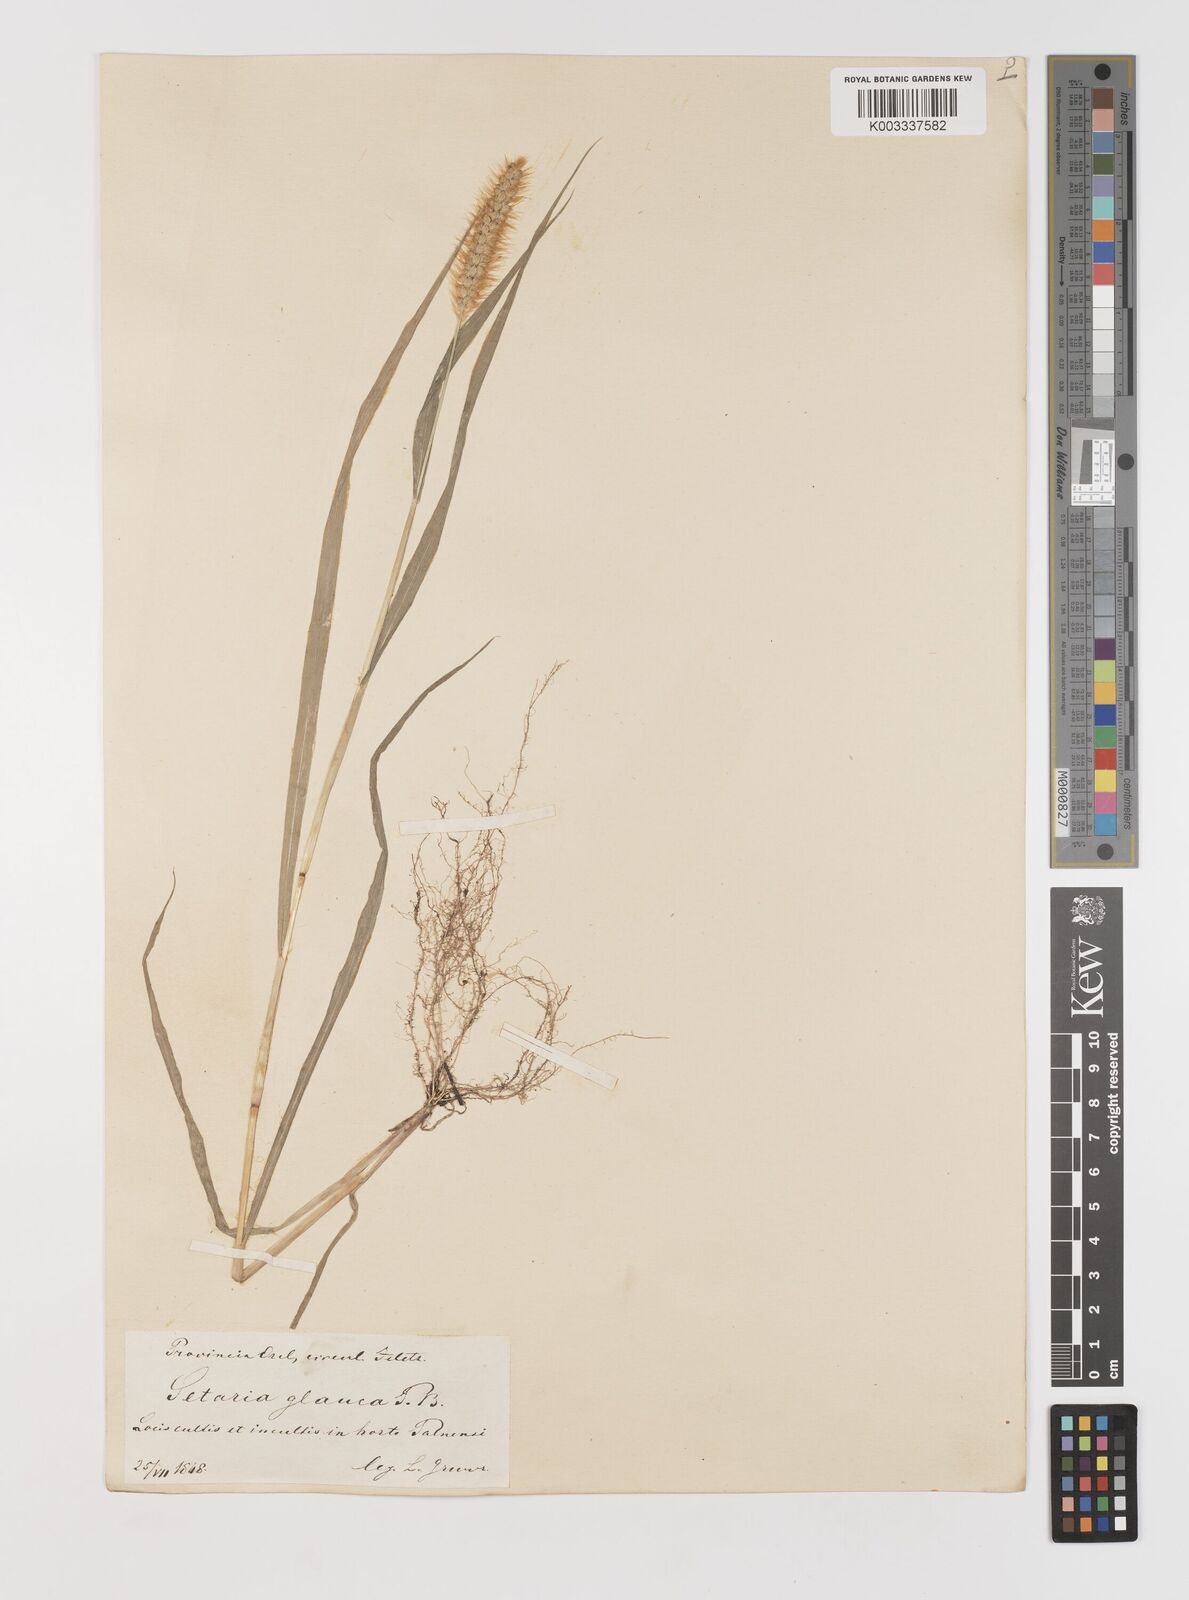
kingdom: Plantae
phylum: Tracheophyta
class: Liliopsida
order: Poales
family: Poaceae
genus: Setaria
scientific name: Setaria pumila
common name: Yellow bristle-grass
